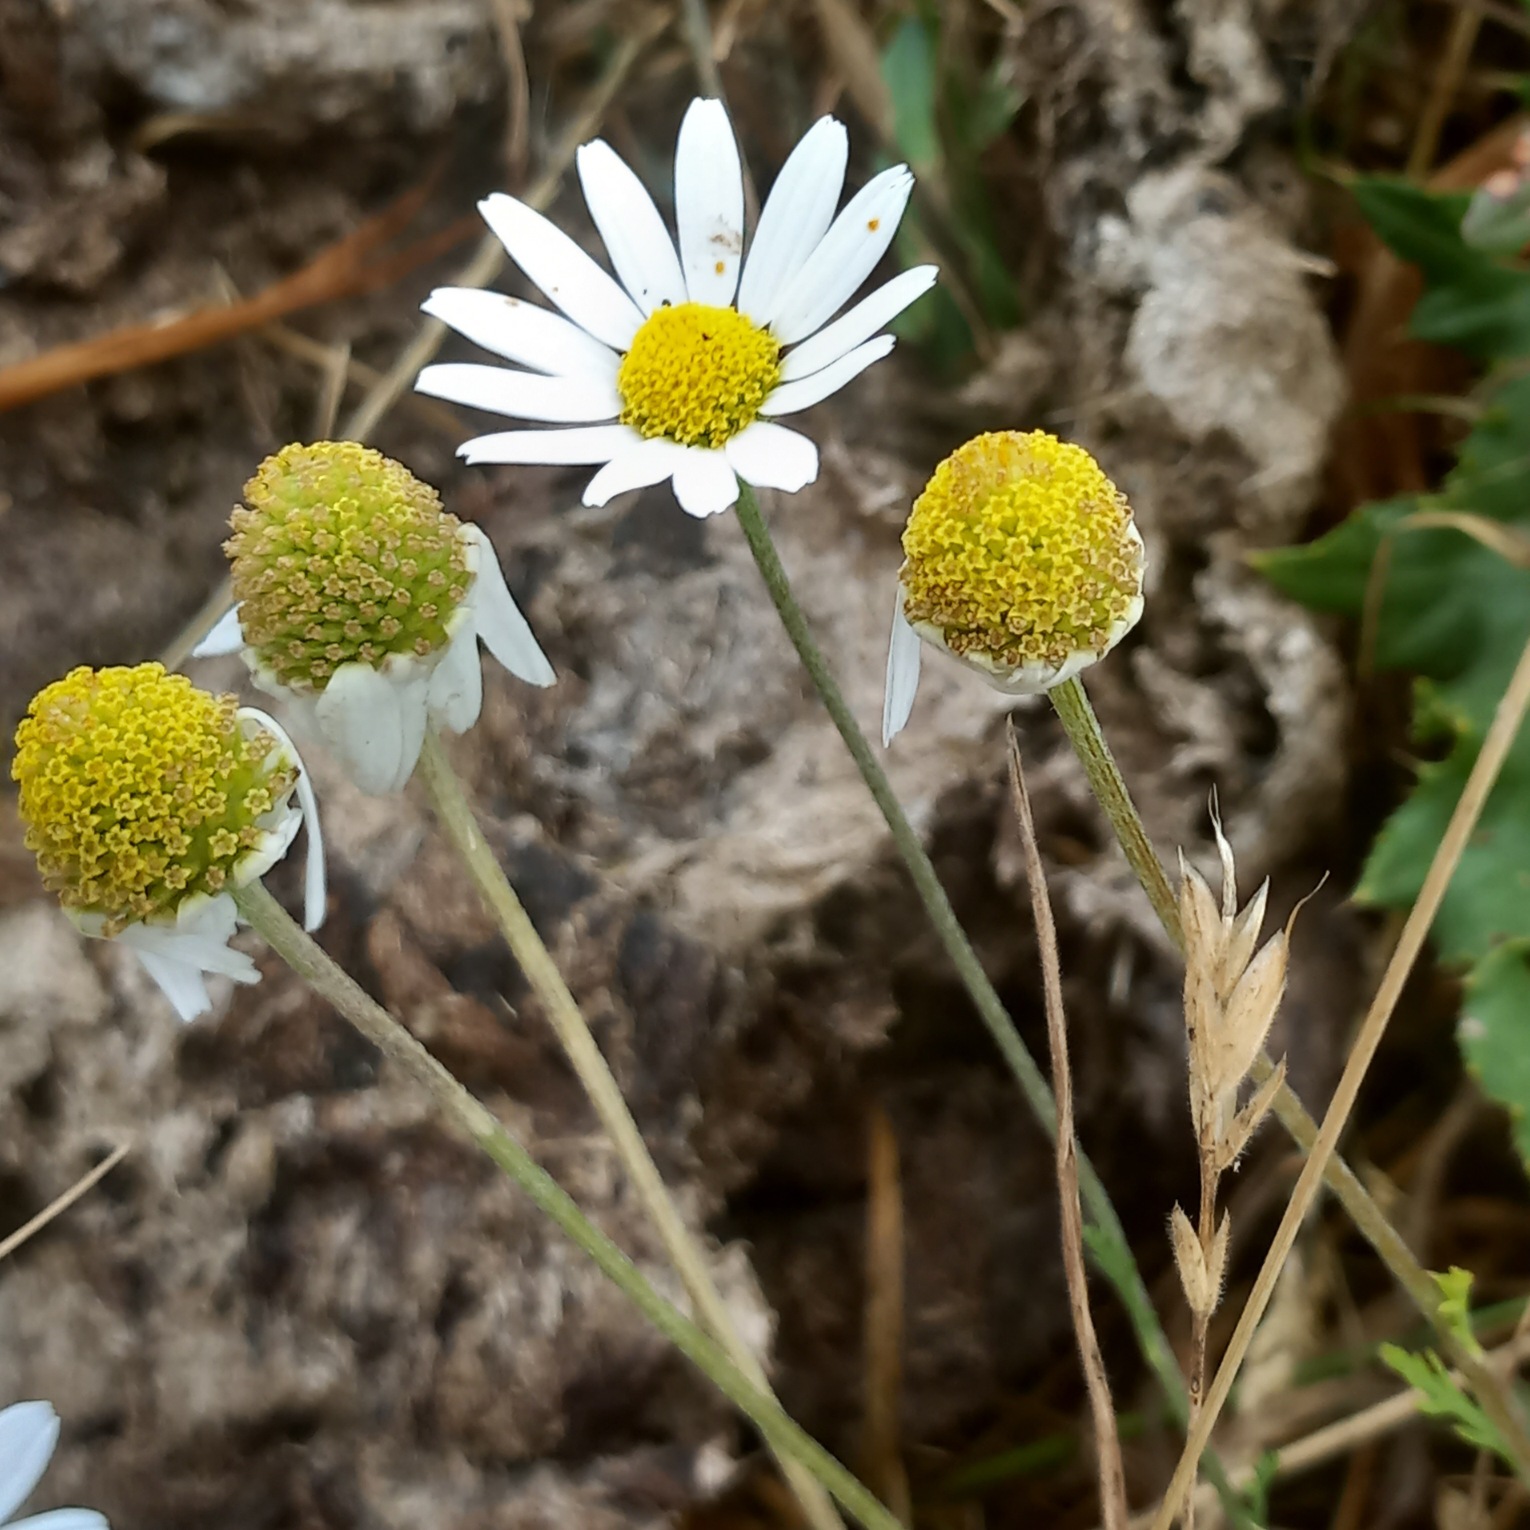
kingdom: Plantae
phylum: Tracheophyta
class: Magnoliopsida
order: Asterales
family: Asteraceae
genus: Matricaria
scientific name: Matricaria chamomilla
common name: Vellugtende kamille
